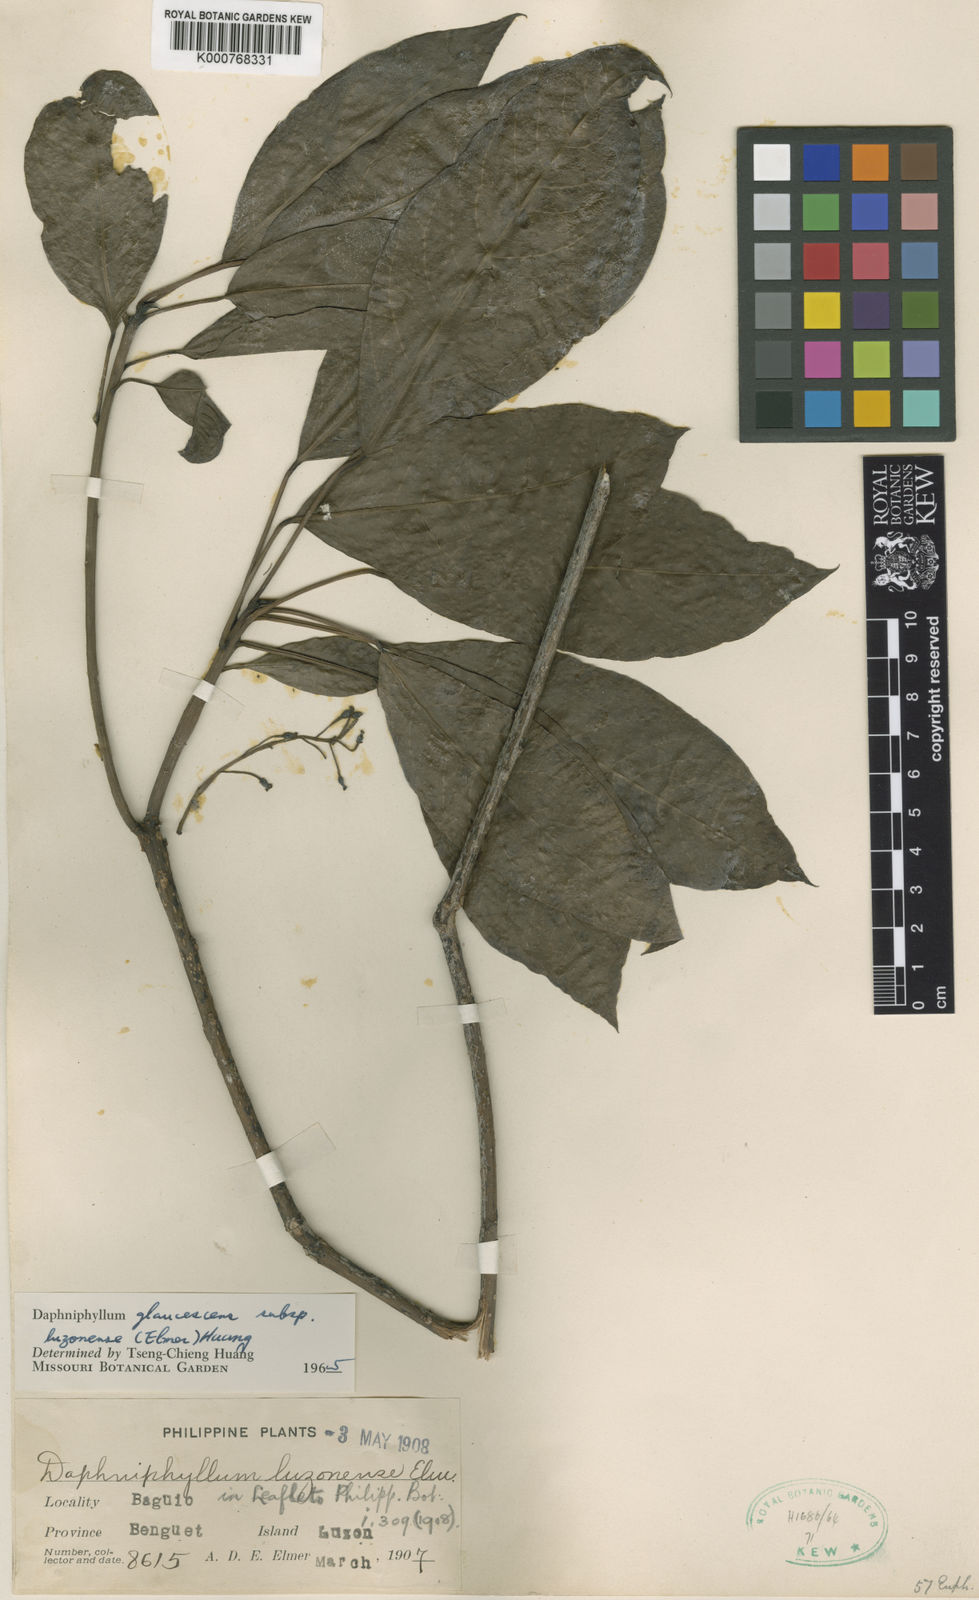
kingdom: Plantae
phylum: Tracheophyta
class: Magnoliopsida
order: Saxifragales
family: Daphniphyllaceae
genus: Daphniphyllum
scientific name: Daphniphyllum luzonense
